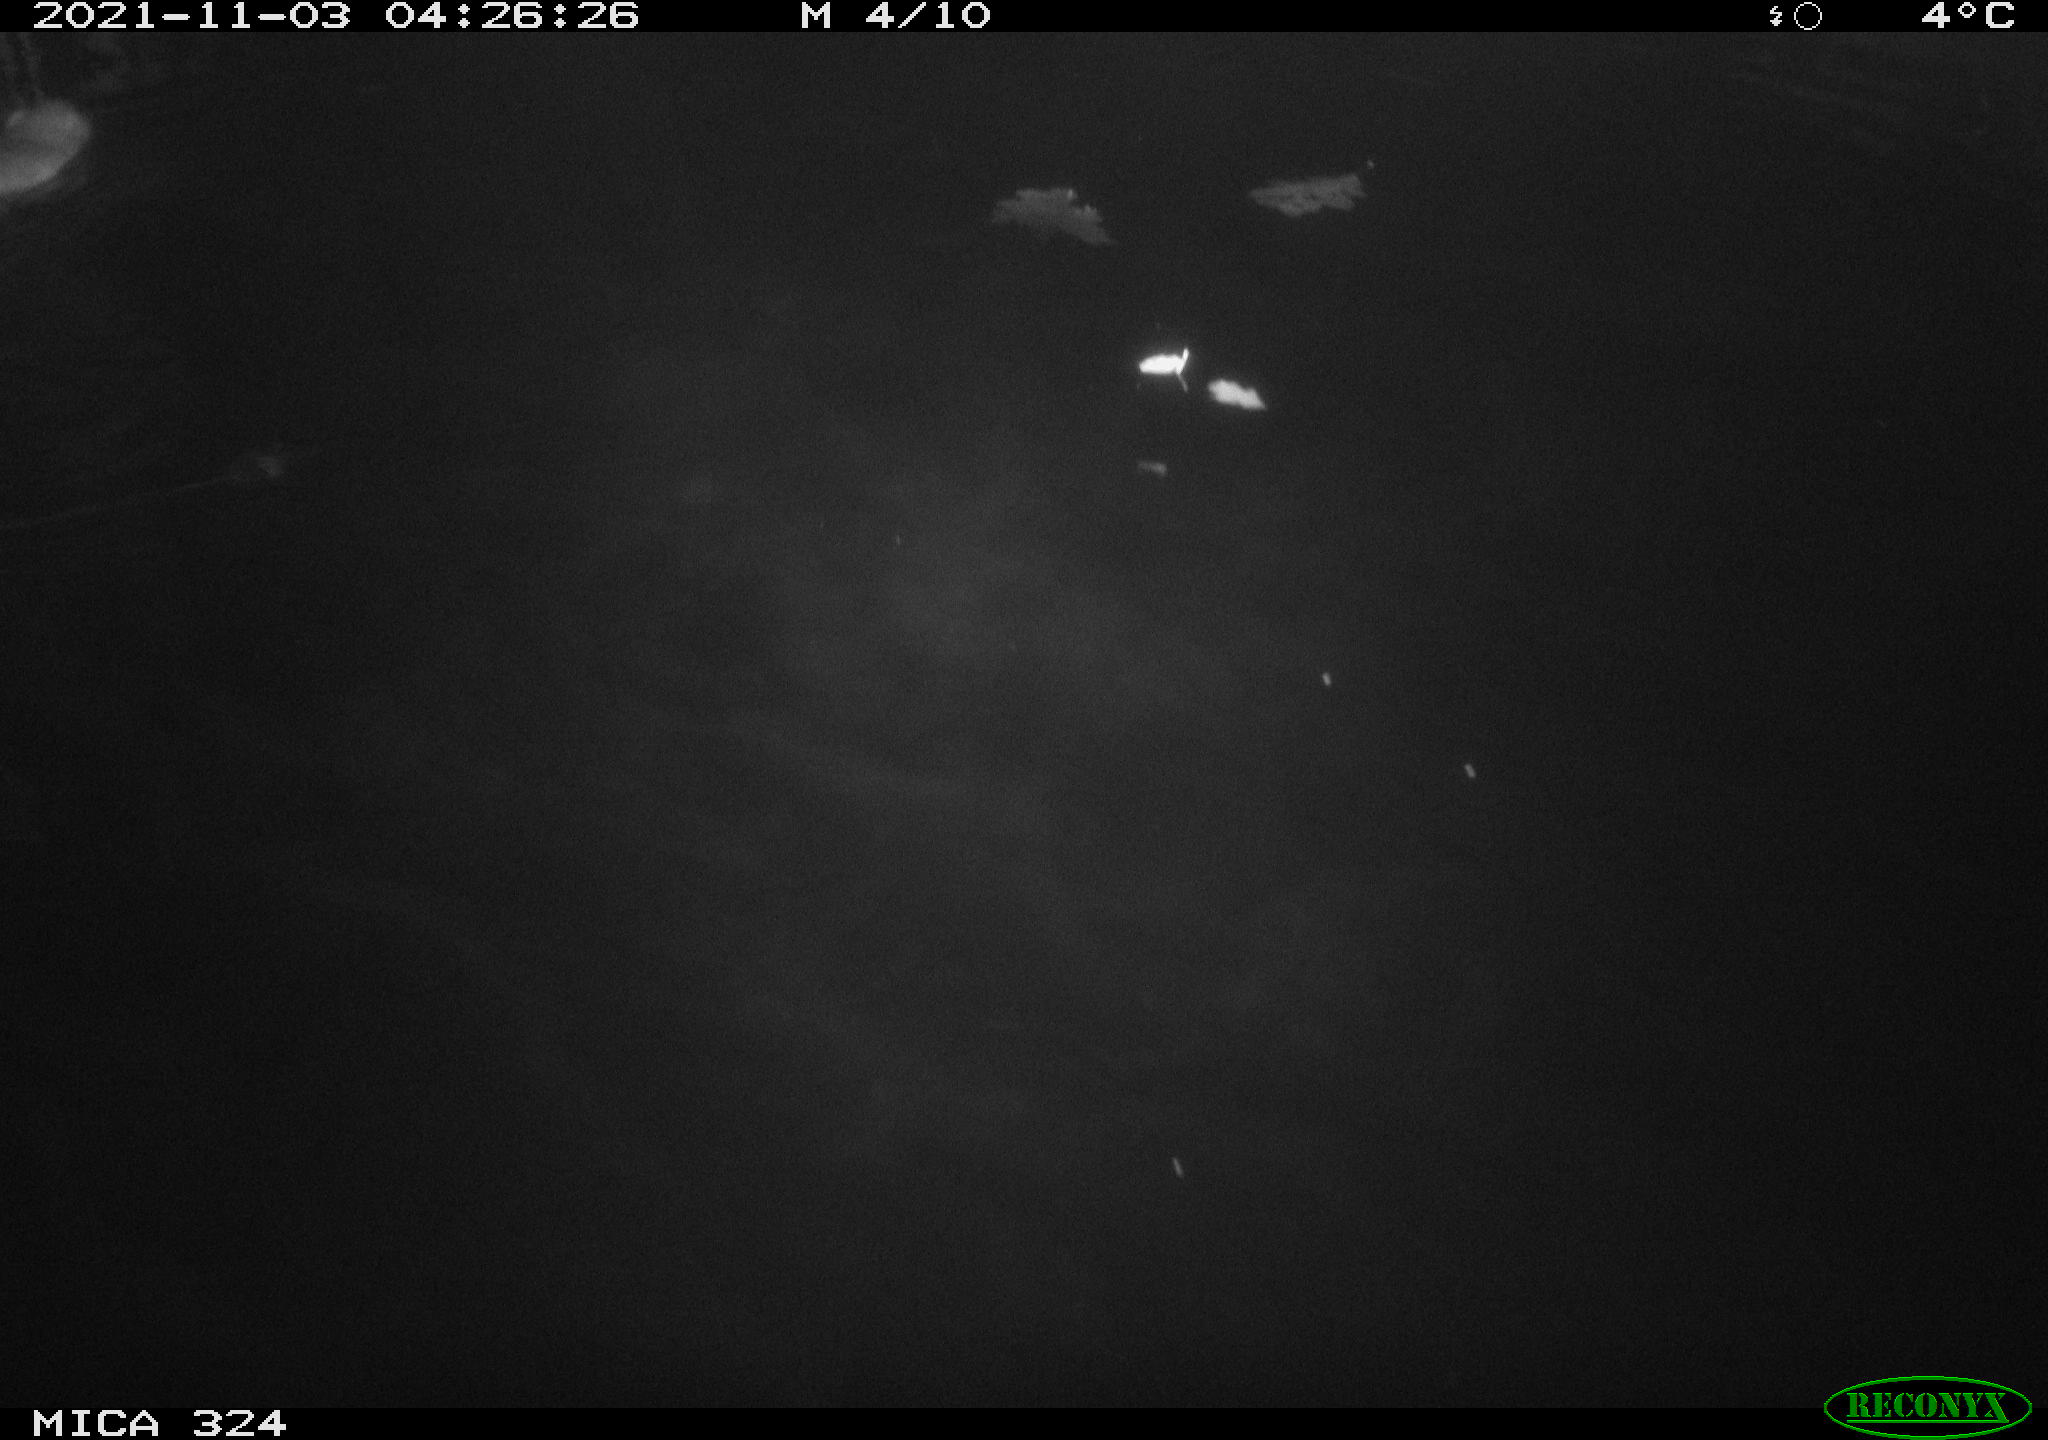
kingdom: Animalia
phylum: Chordata
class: Mammalia
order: Rodentia
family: Cricetidae
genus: Ondatra
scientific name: Ondatra zibethicus
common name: Muskrat
